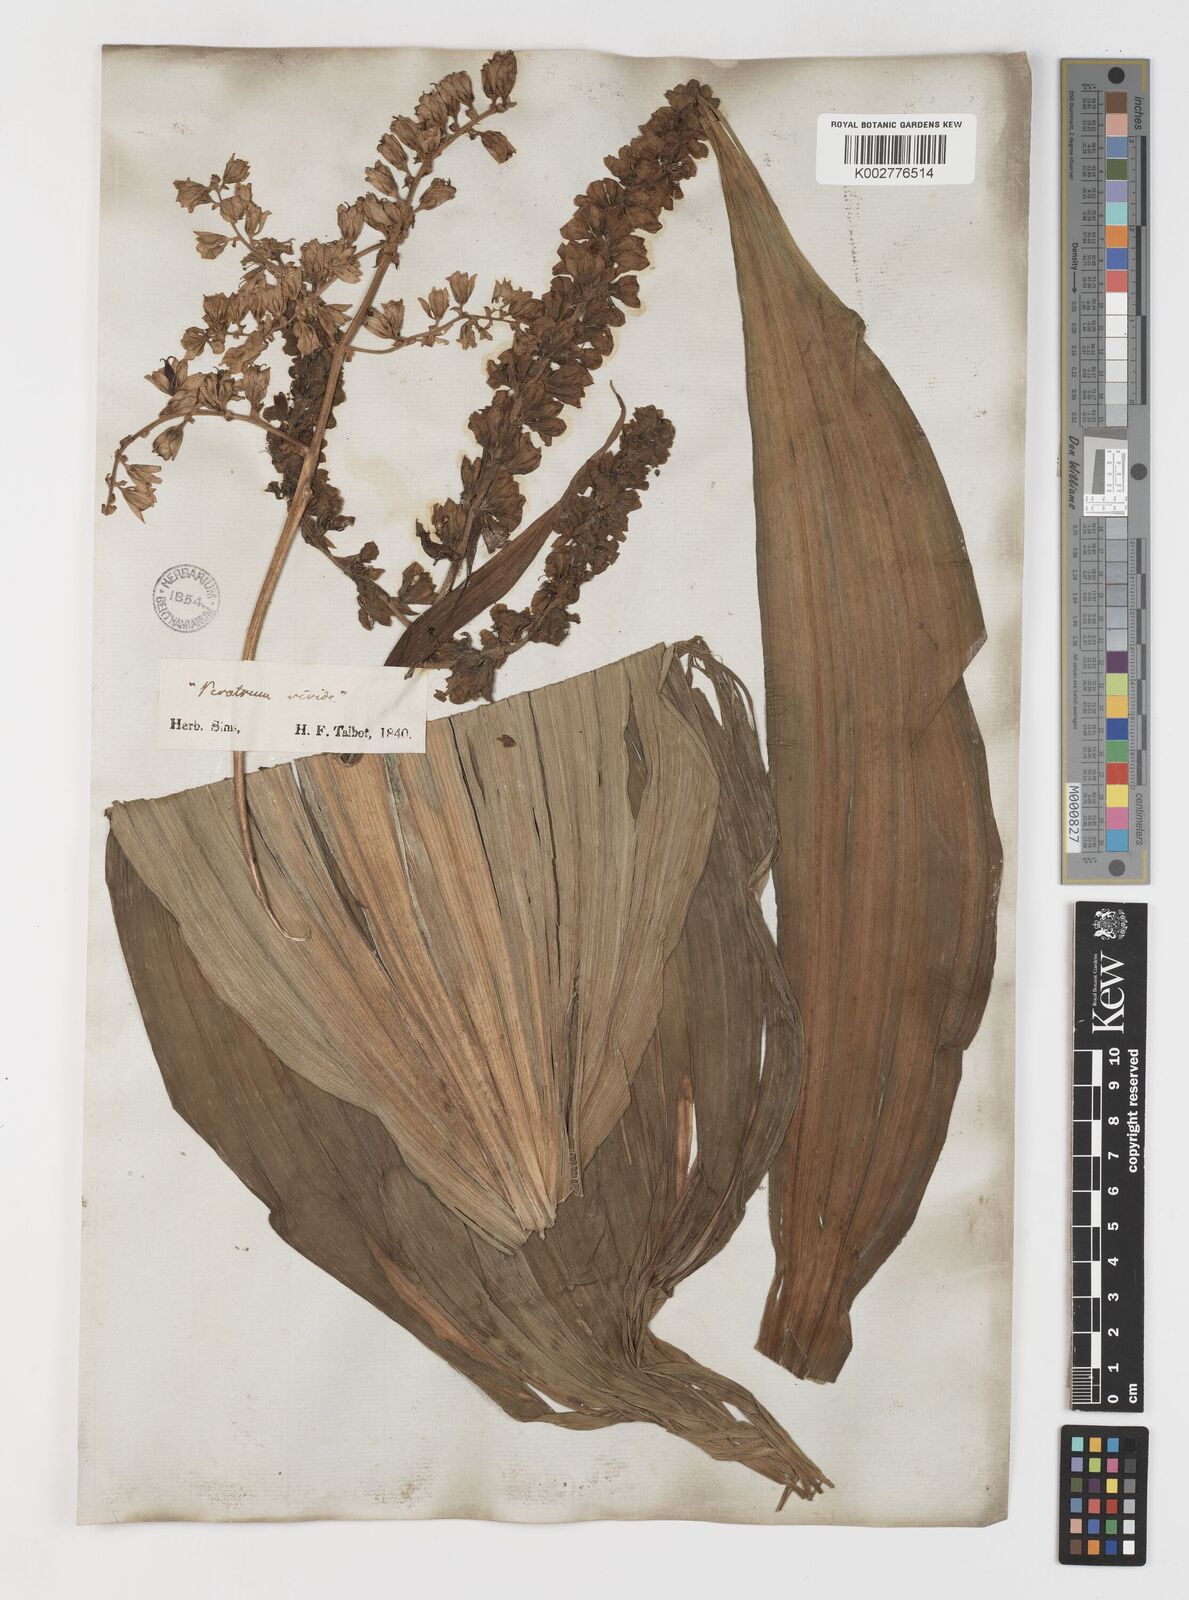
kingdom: Plantae
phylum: Tracheophyta
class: Liliopsida
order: Liliales
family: Melanthiaceae
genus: Veratrum
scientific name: Veratrum viride
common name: American false hellebore
